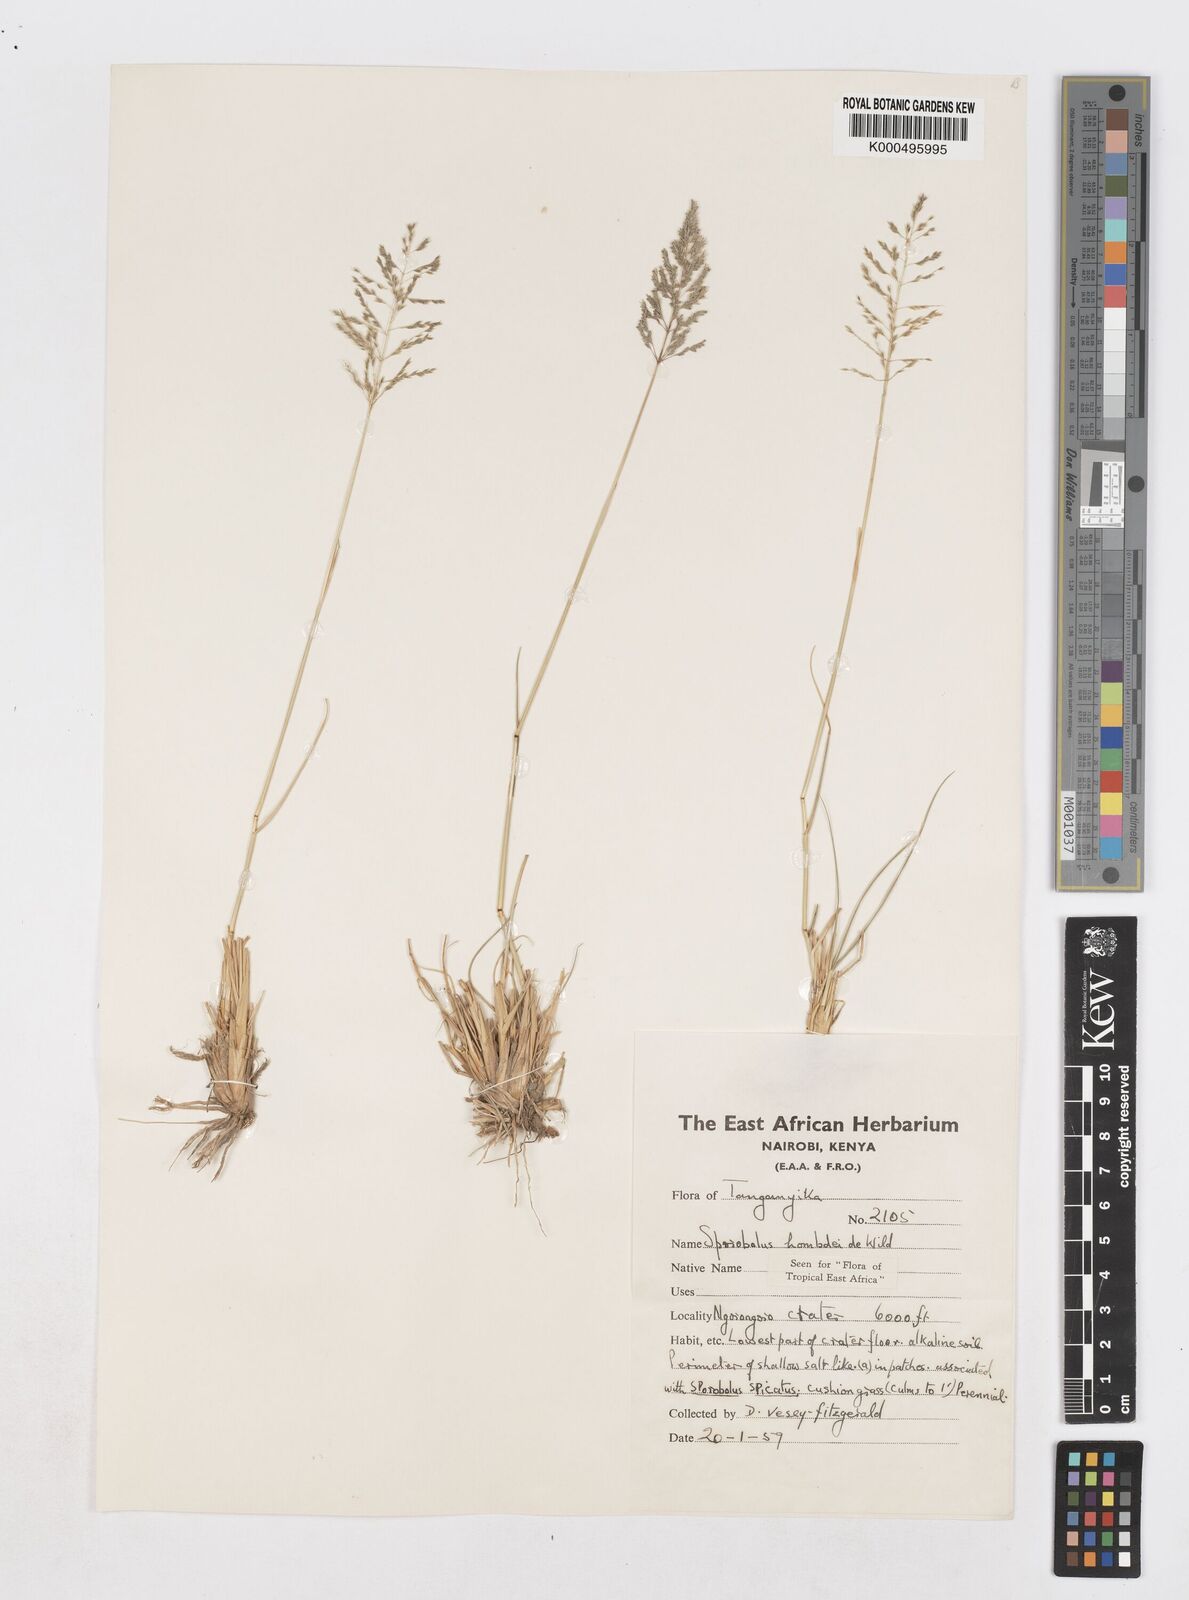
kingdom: Plantae
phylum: Tracheophyta
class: Liliopsida
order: Poales
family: Poaceae
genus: Sporobolus
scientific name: Sporobolus ioclados
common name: Pan dropseed
